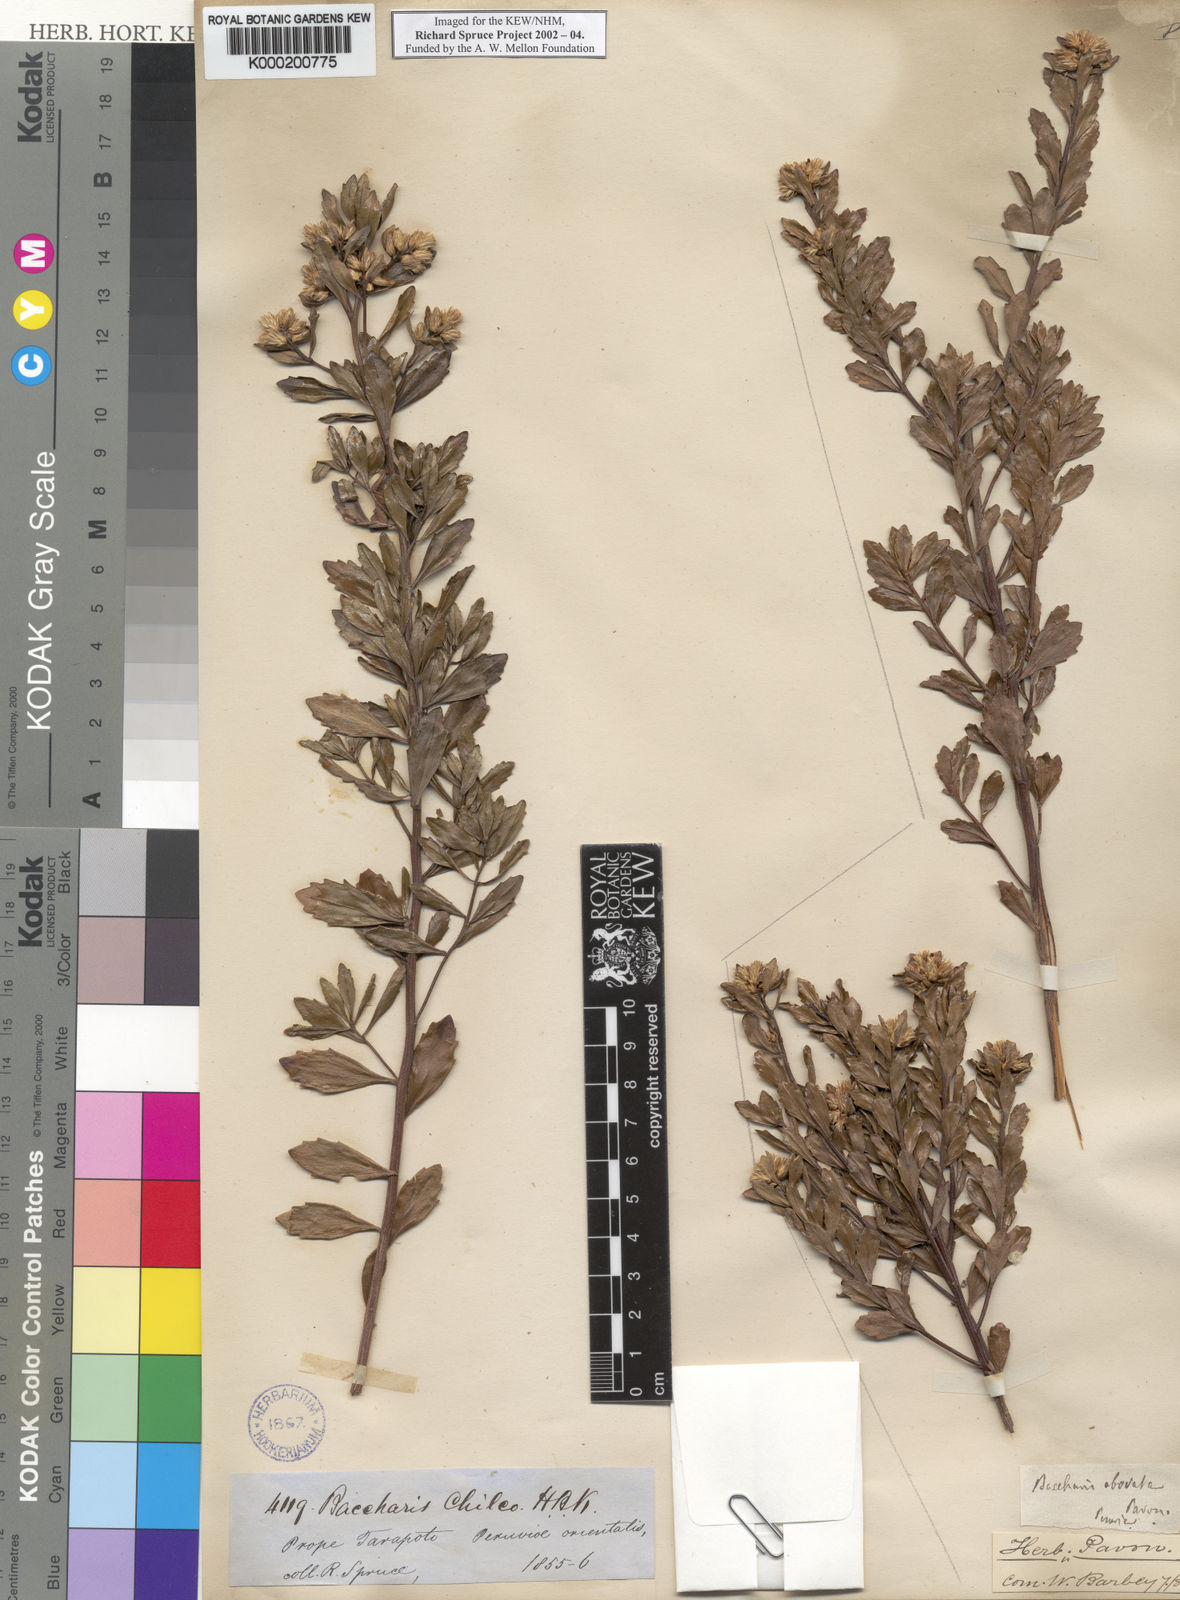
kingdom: Plantae
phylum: Tracheophyta
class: Magnoliopsida
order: Asterales
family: Asteraceae
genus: Baccharis
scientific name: Baccharis linearifolia
